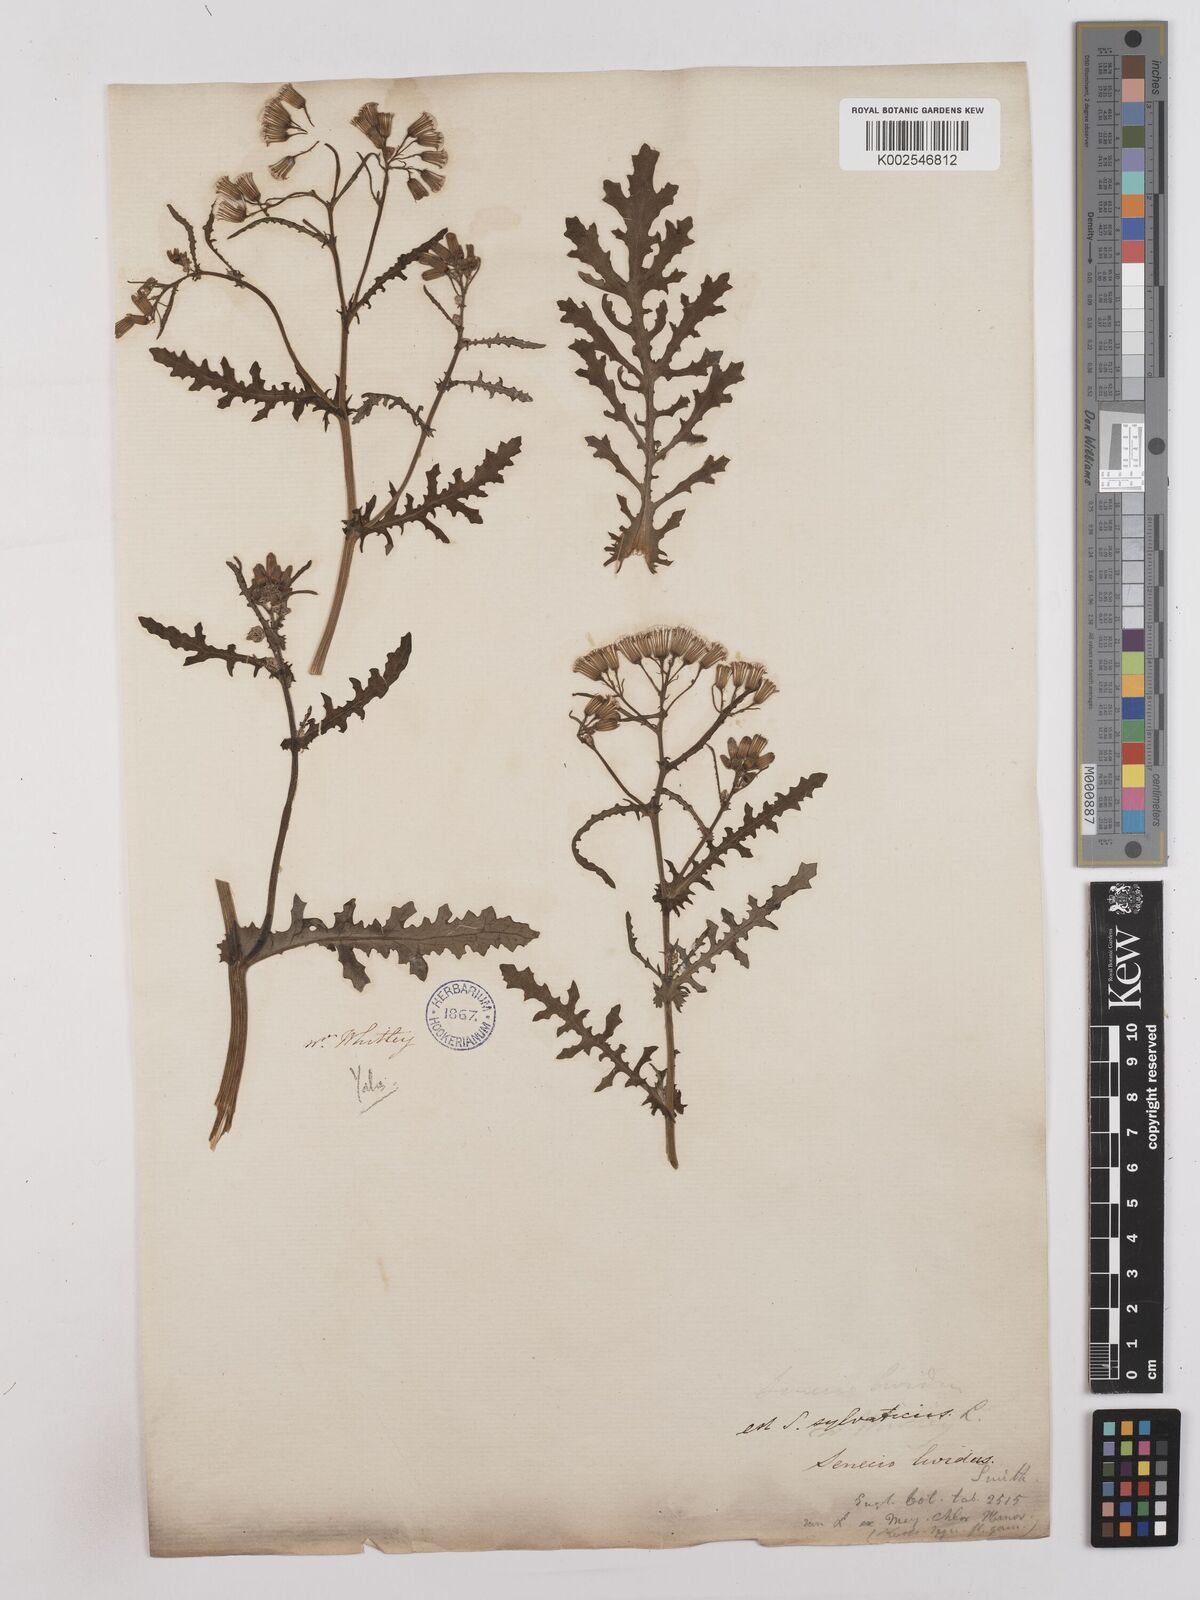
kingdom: Plantae
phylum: Tracheophyta
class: Magnoliopsida
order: Asterales
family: Asteraceae
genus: Senecio
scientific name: Senecio sylvaticus
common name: Woodland ragwort
